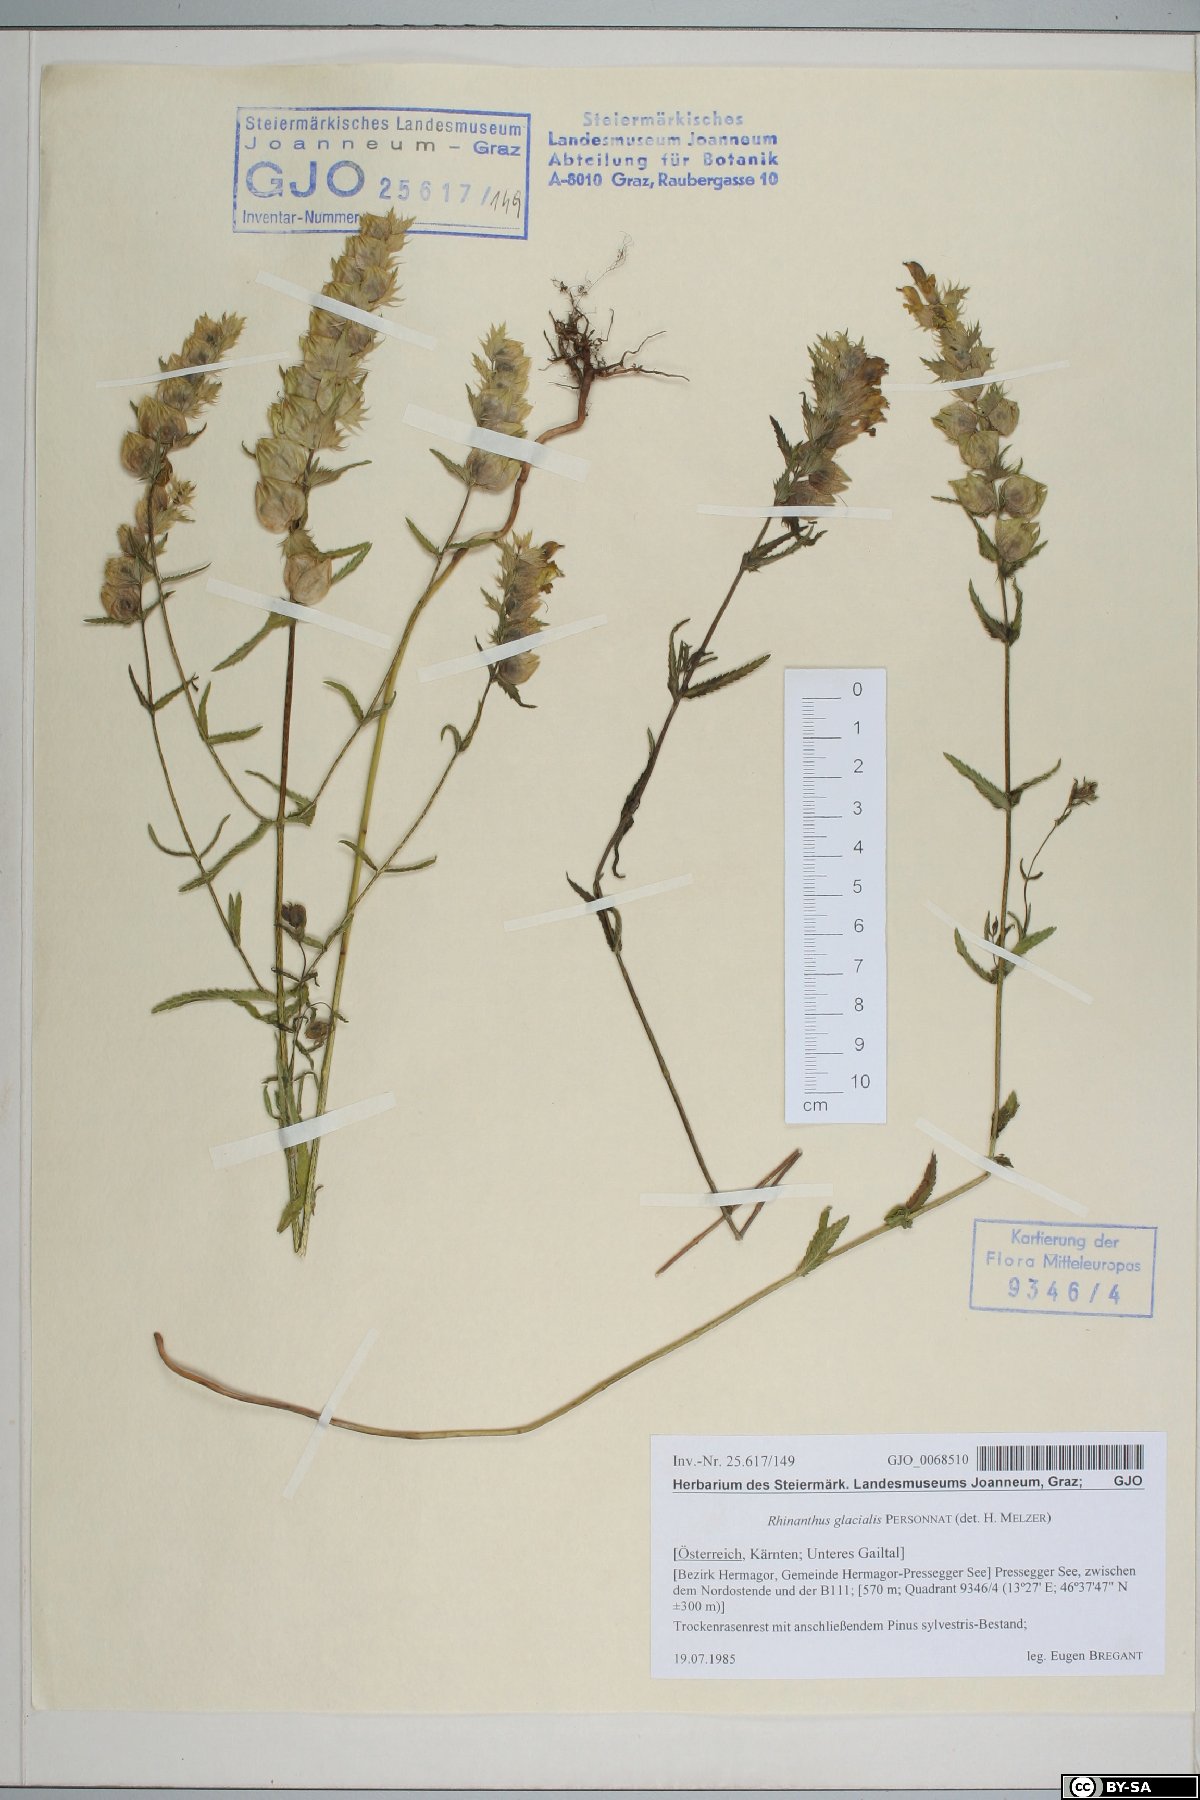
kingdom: Plantae
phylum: Tracheophyta
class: Magnoliopsida
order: Lamiales
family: Orobanchaceae
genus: Rhinanthus
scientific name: Rhinanthus glacialis
